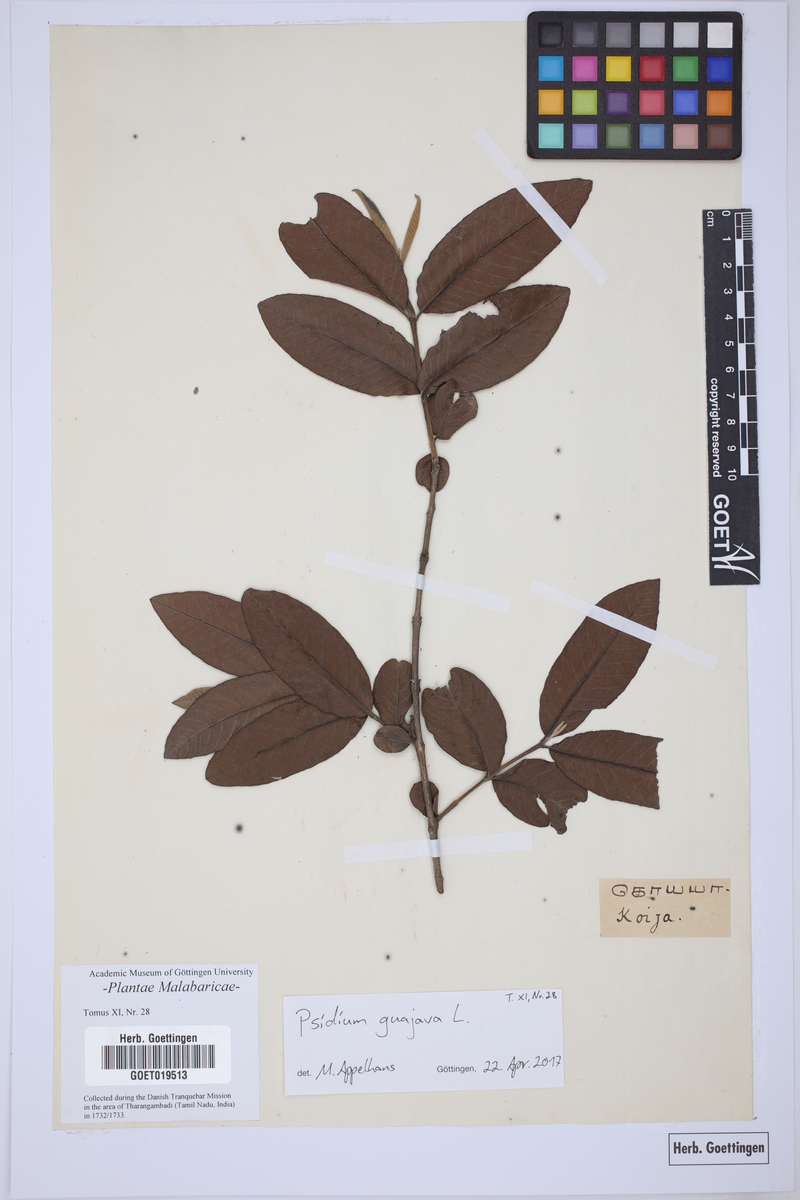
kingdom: Plantae
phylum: Tracheophyta
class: Magnoliopsida
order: Myrtales
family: Myrtaceae
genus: Psidium
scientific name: Psidium guajava
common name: Guava
